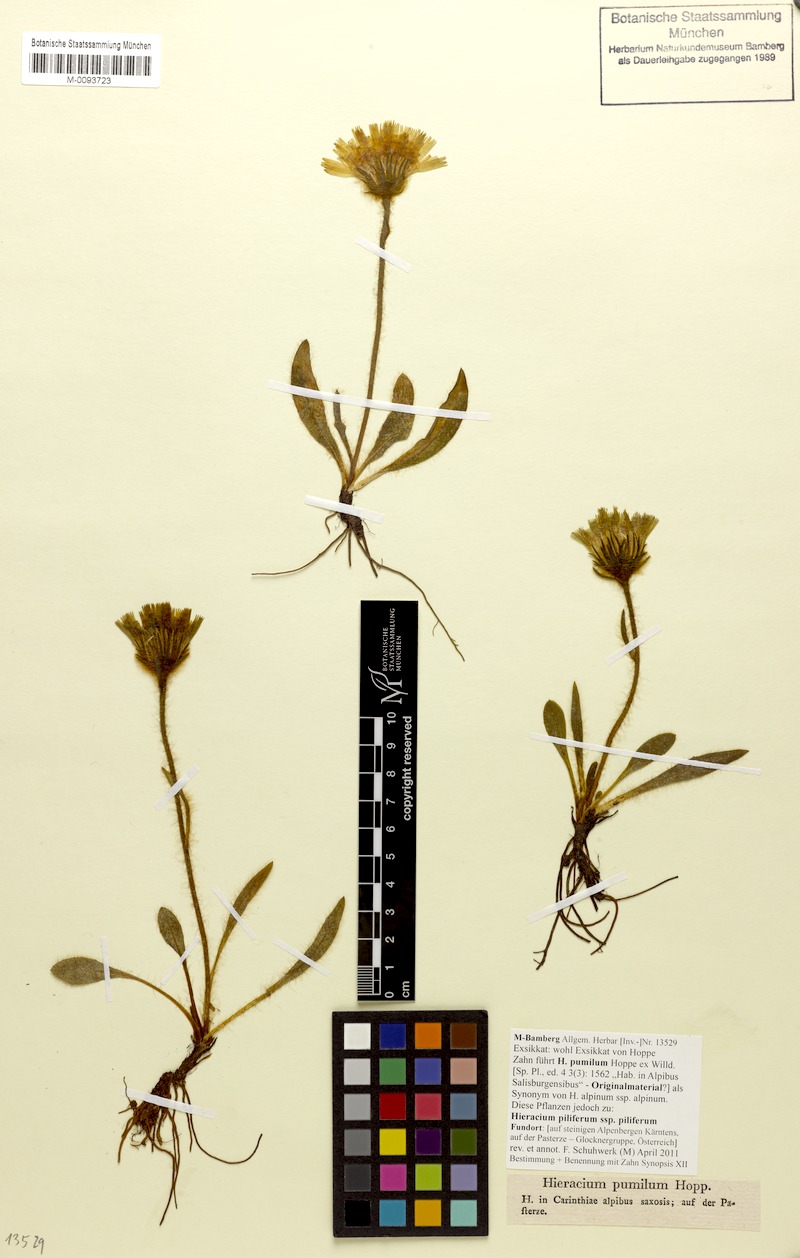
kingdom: Plantae
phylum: Tracheophyta
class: Magnoliopsida
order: Asterales
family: Asteraceae
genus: Hieracium
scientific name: Hieracium piliferum
